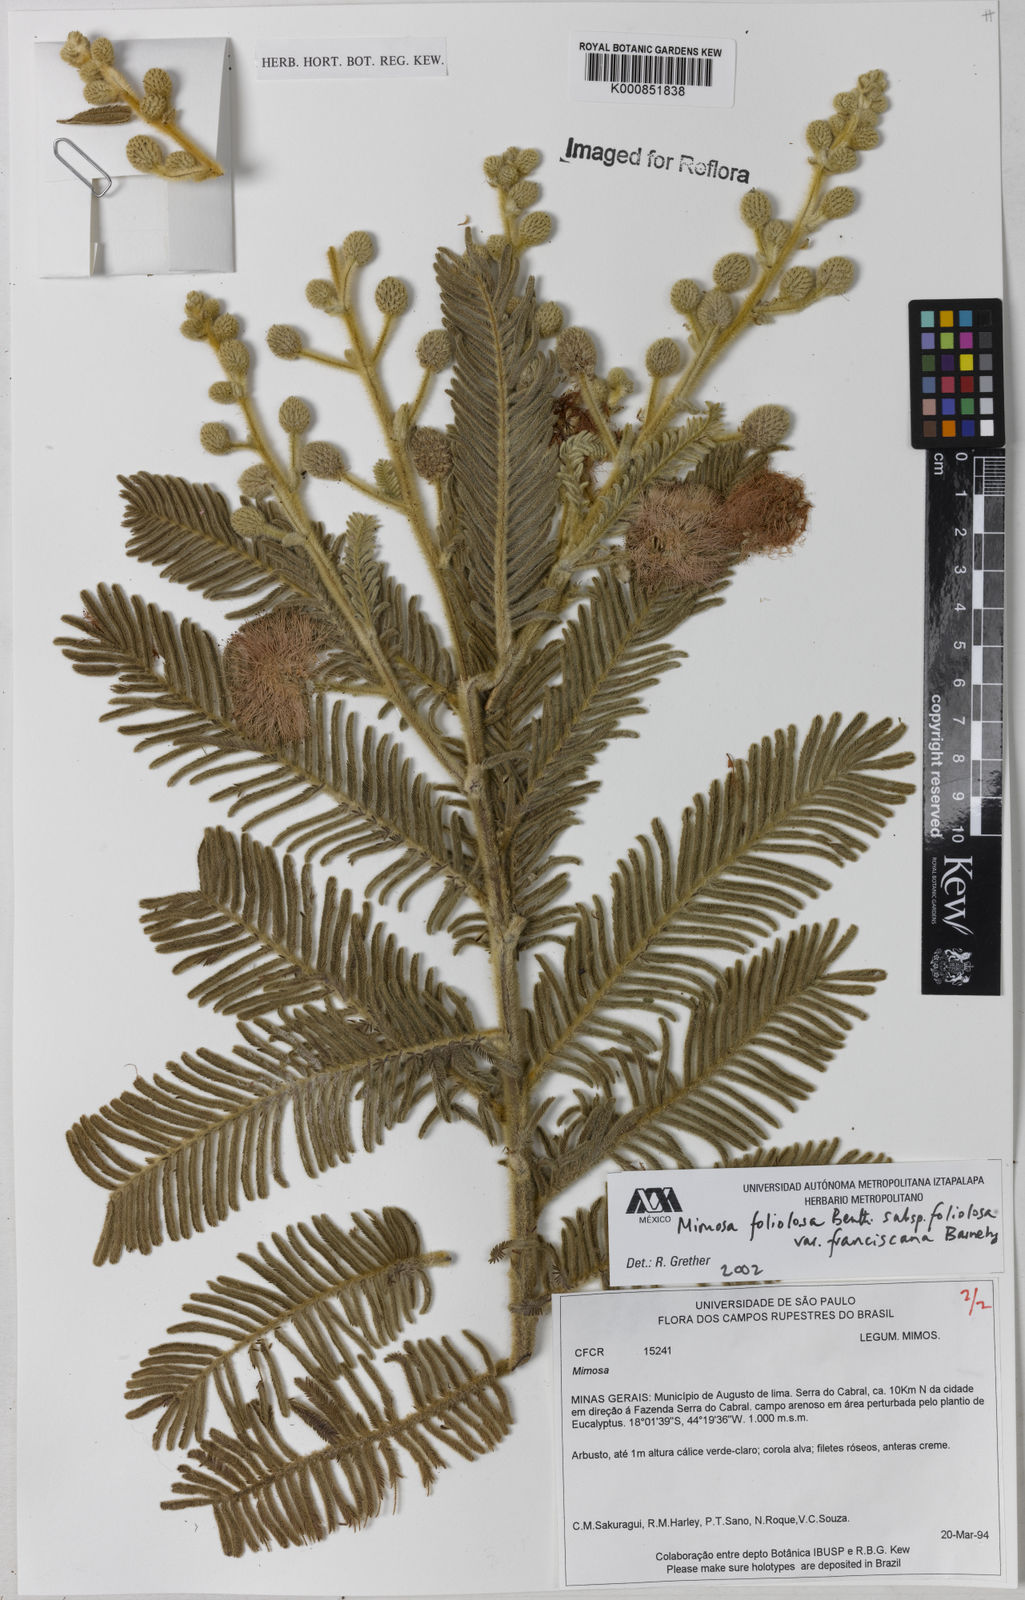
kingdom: Plantae
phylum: Tracheophyta
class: Magnoliopsida
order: Fabales
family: Fabaceae
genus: Mimosa
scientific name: Mimosa foliolosa
